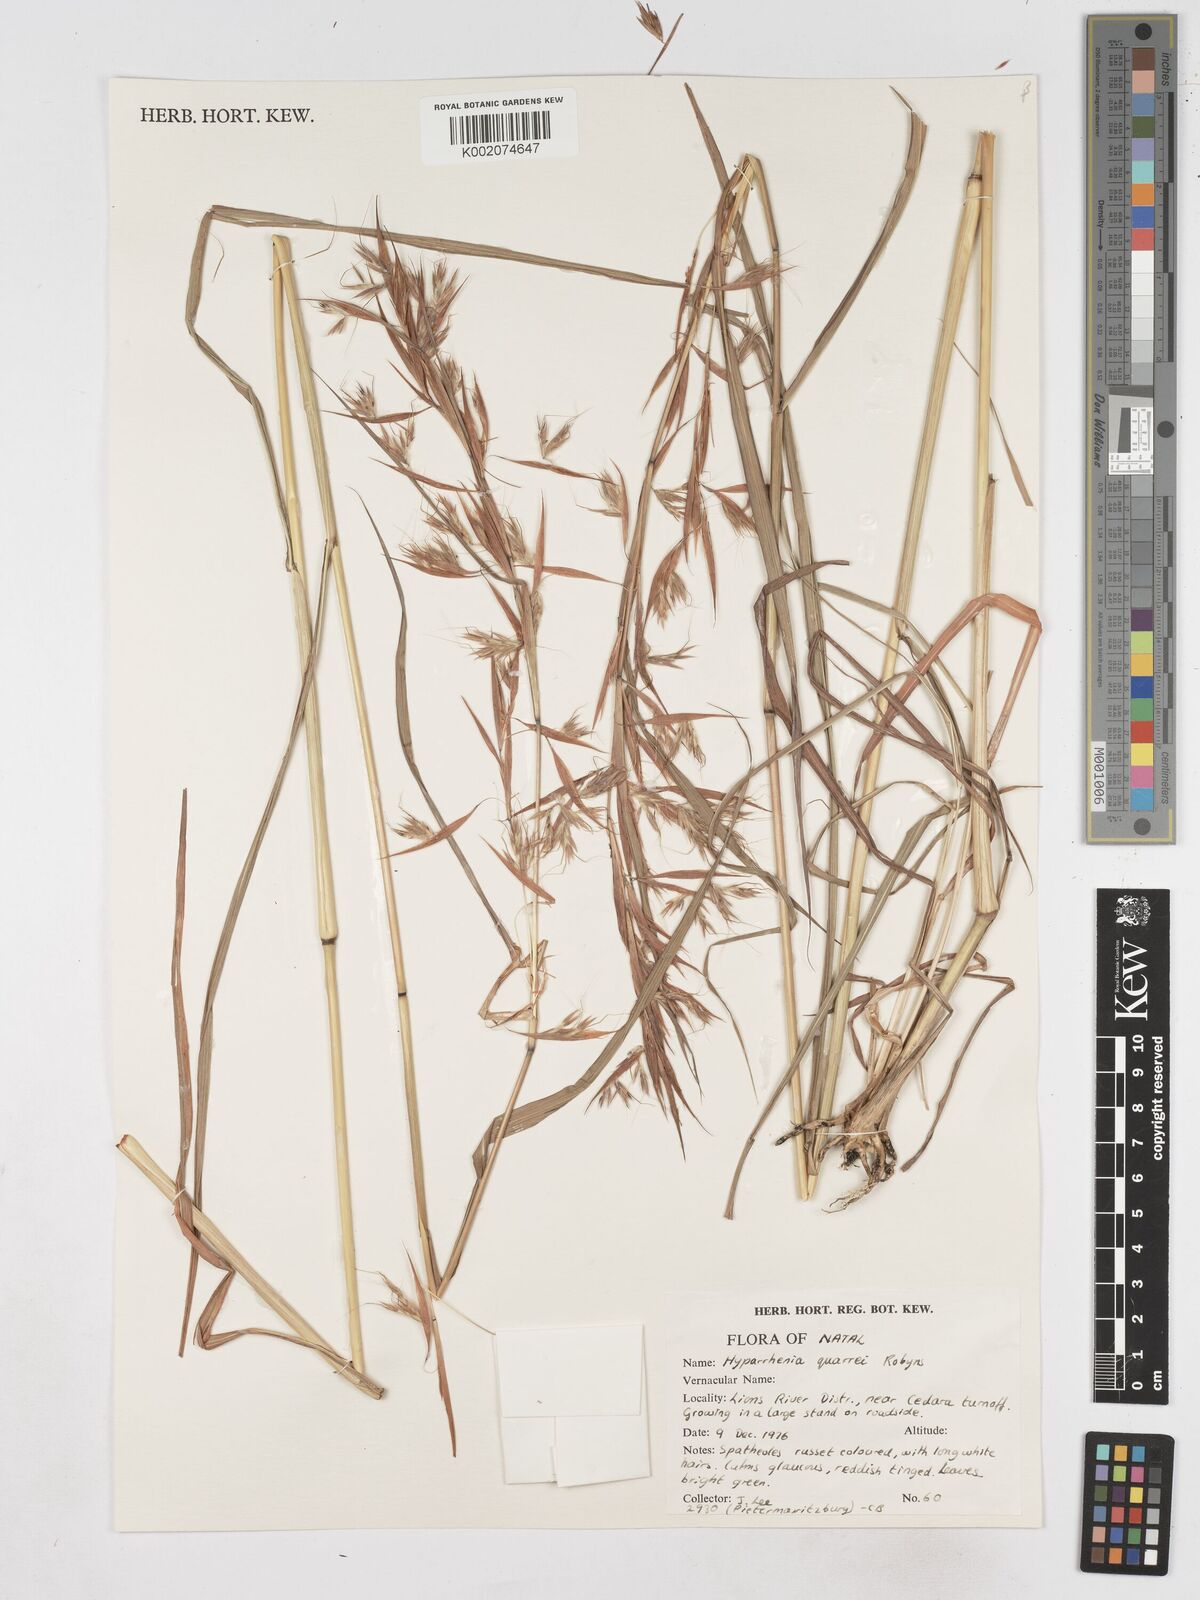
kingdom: Plantae
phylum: Tracheophyta
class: Liliopsida
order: Poales
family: Poaceae
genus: Hyparrhenia
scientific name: Hyparrhenia quarrei
